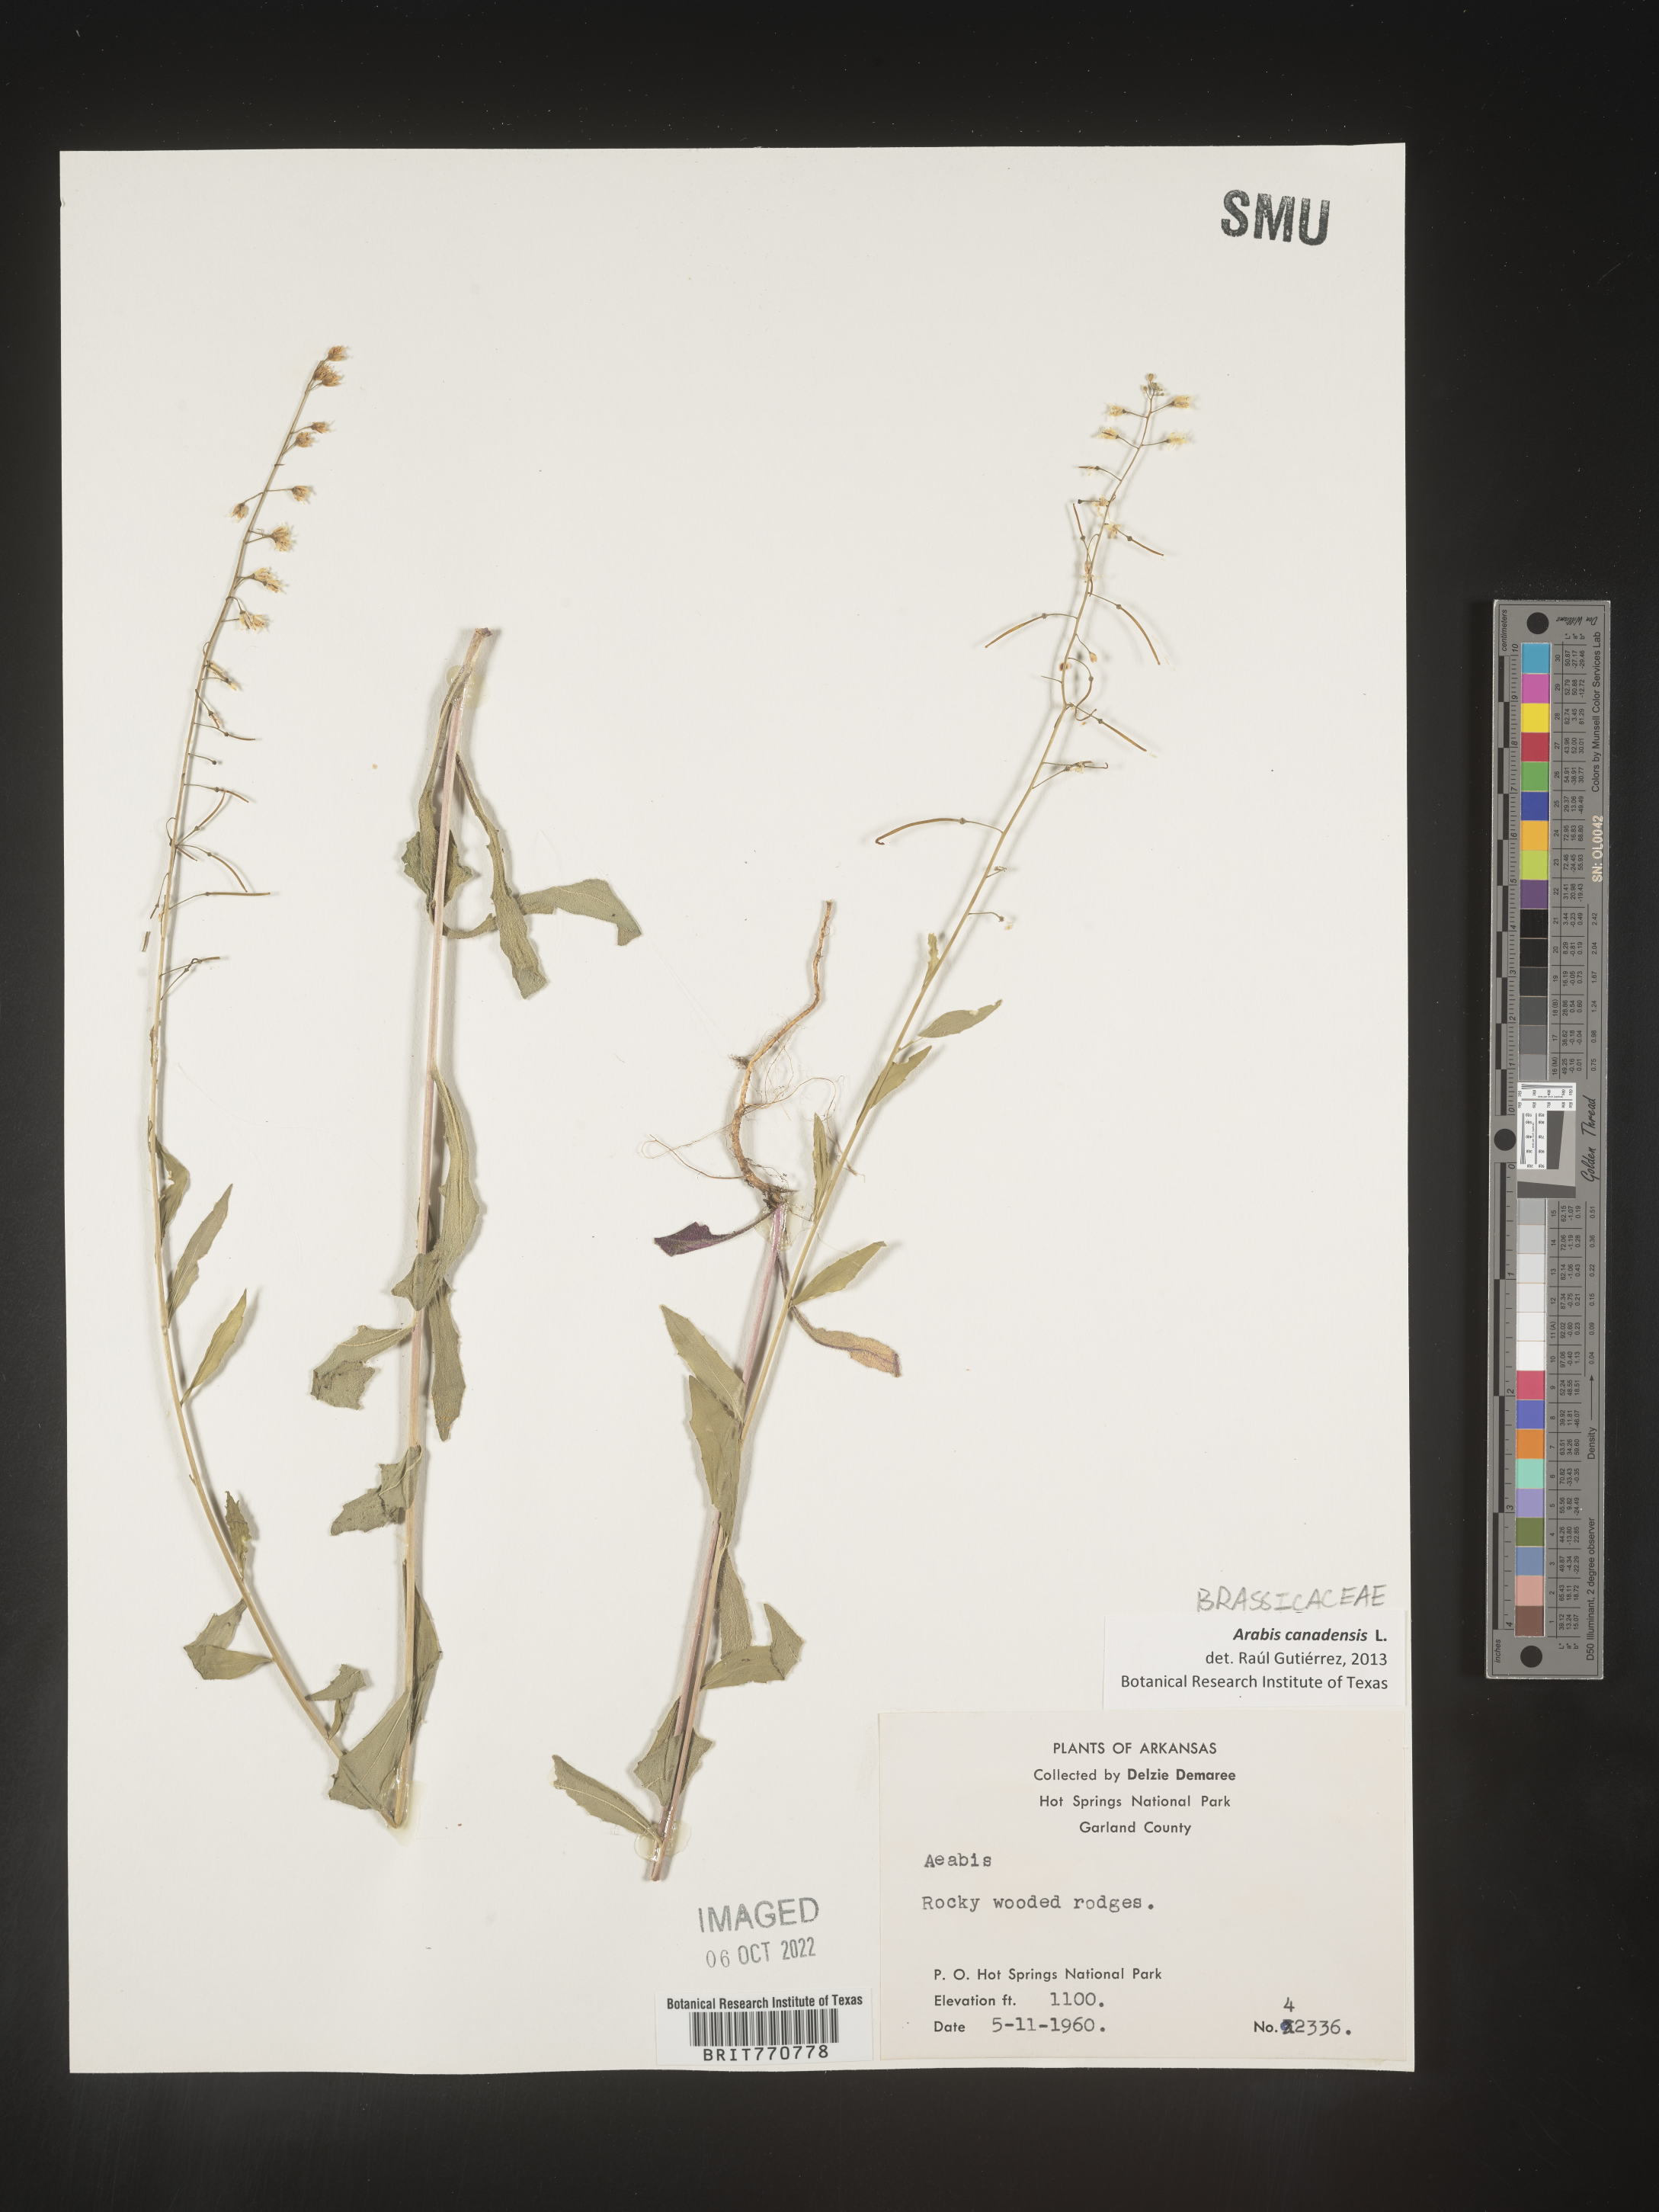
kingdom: Plantae
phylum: Tracheophyta
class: Magnoliopsida
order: Brassicales
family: Brassicaceae
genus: Borodinia
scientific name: Borodinia canadensis
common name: Sicklepod
